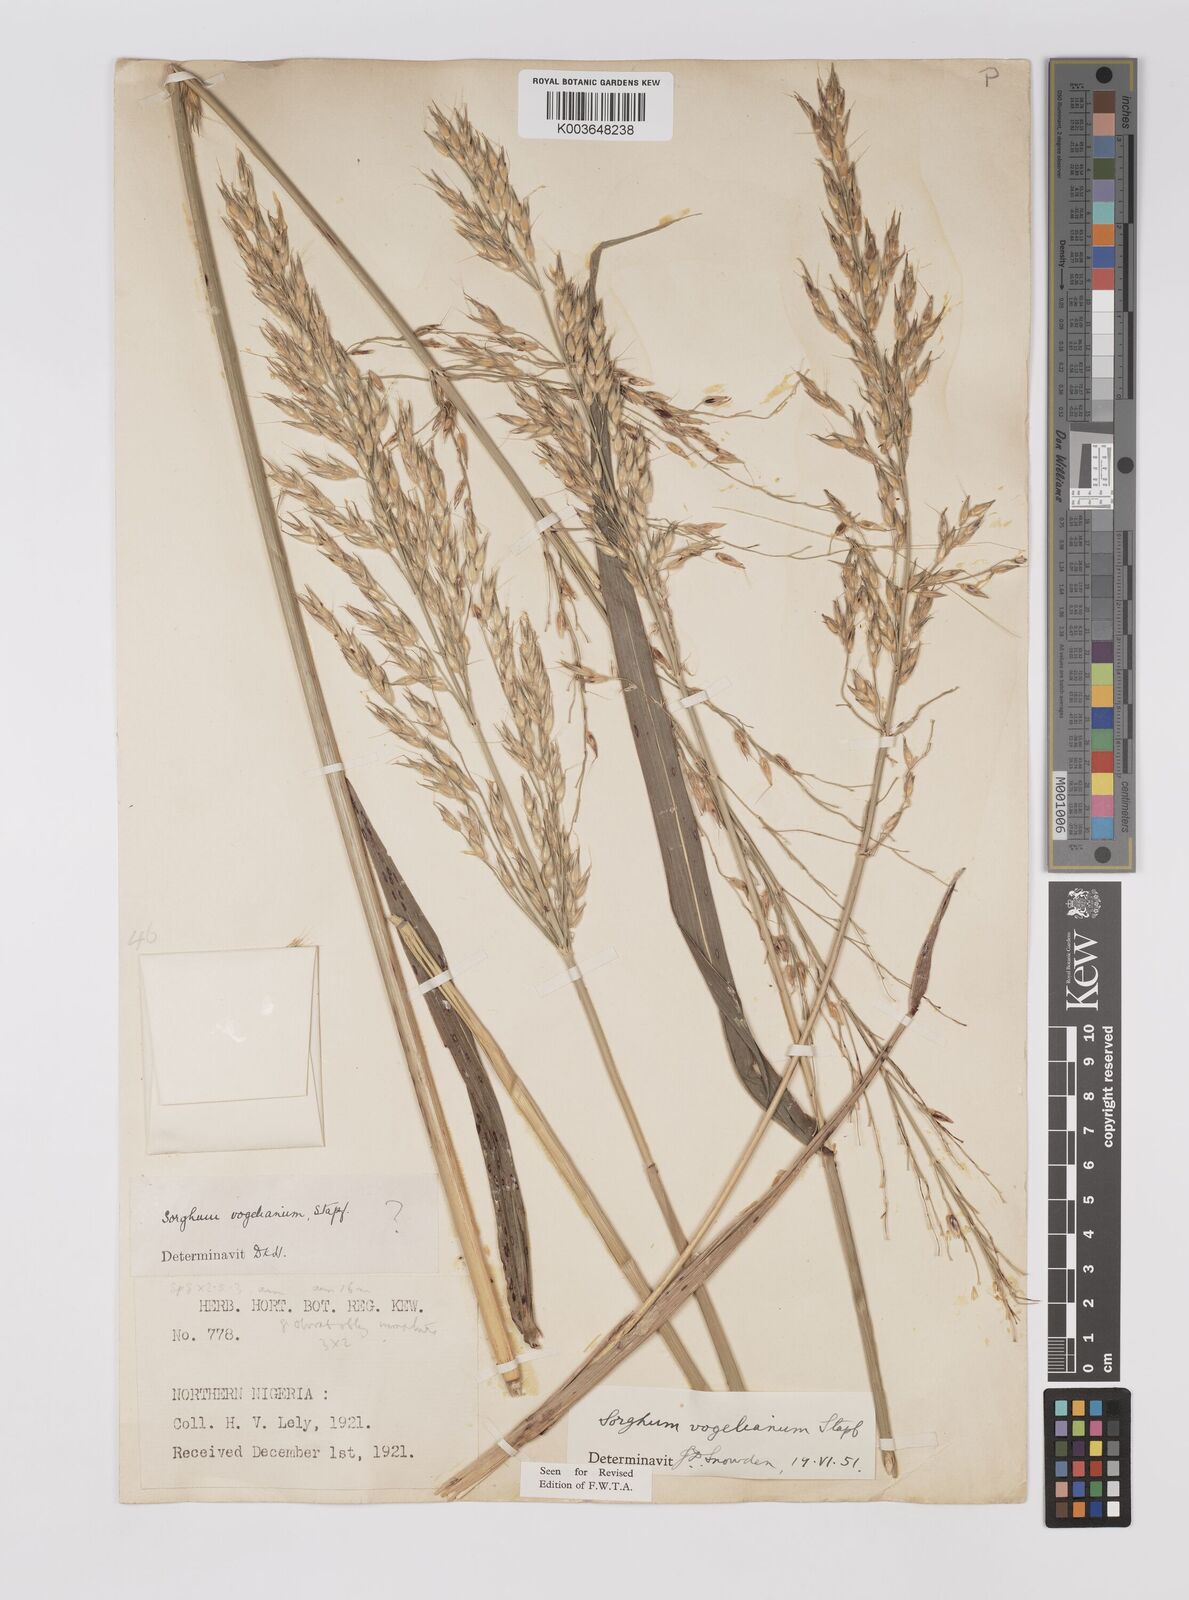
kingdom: Plantae
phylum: Tracheophyta
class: Liliopsida
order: Poales
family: Poaceae
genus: Sorghum
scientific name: Sorghum arundinaceum
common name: Sorghum
